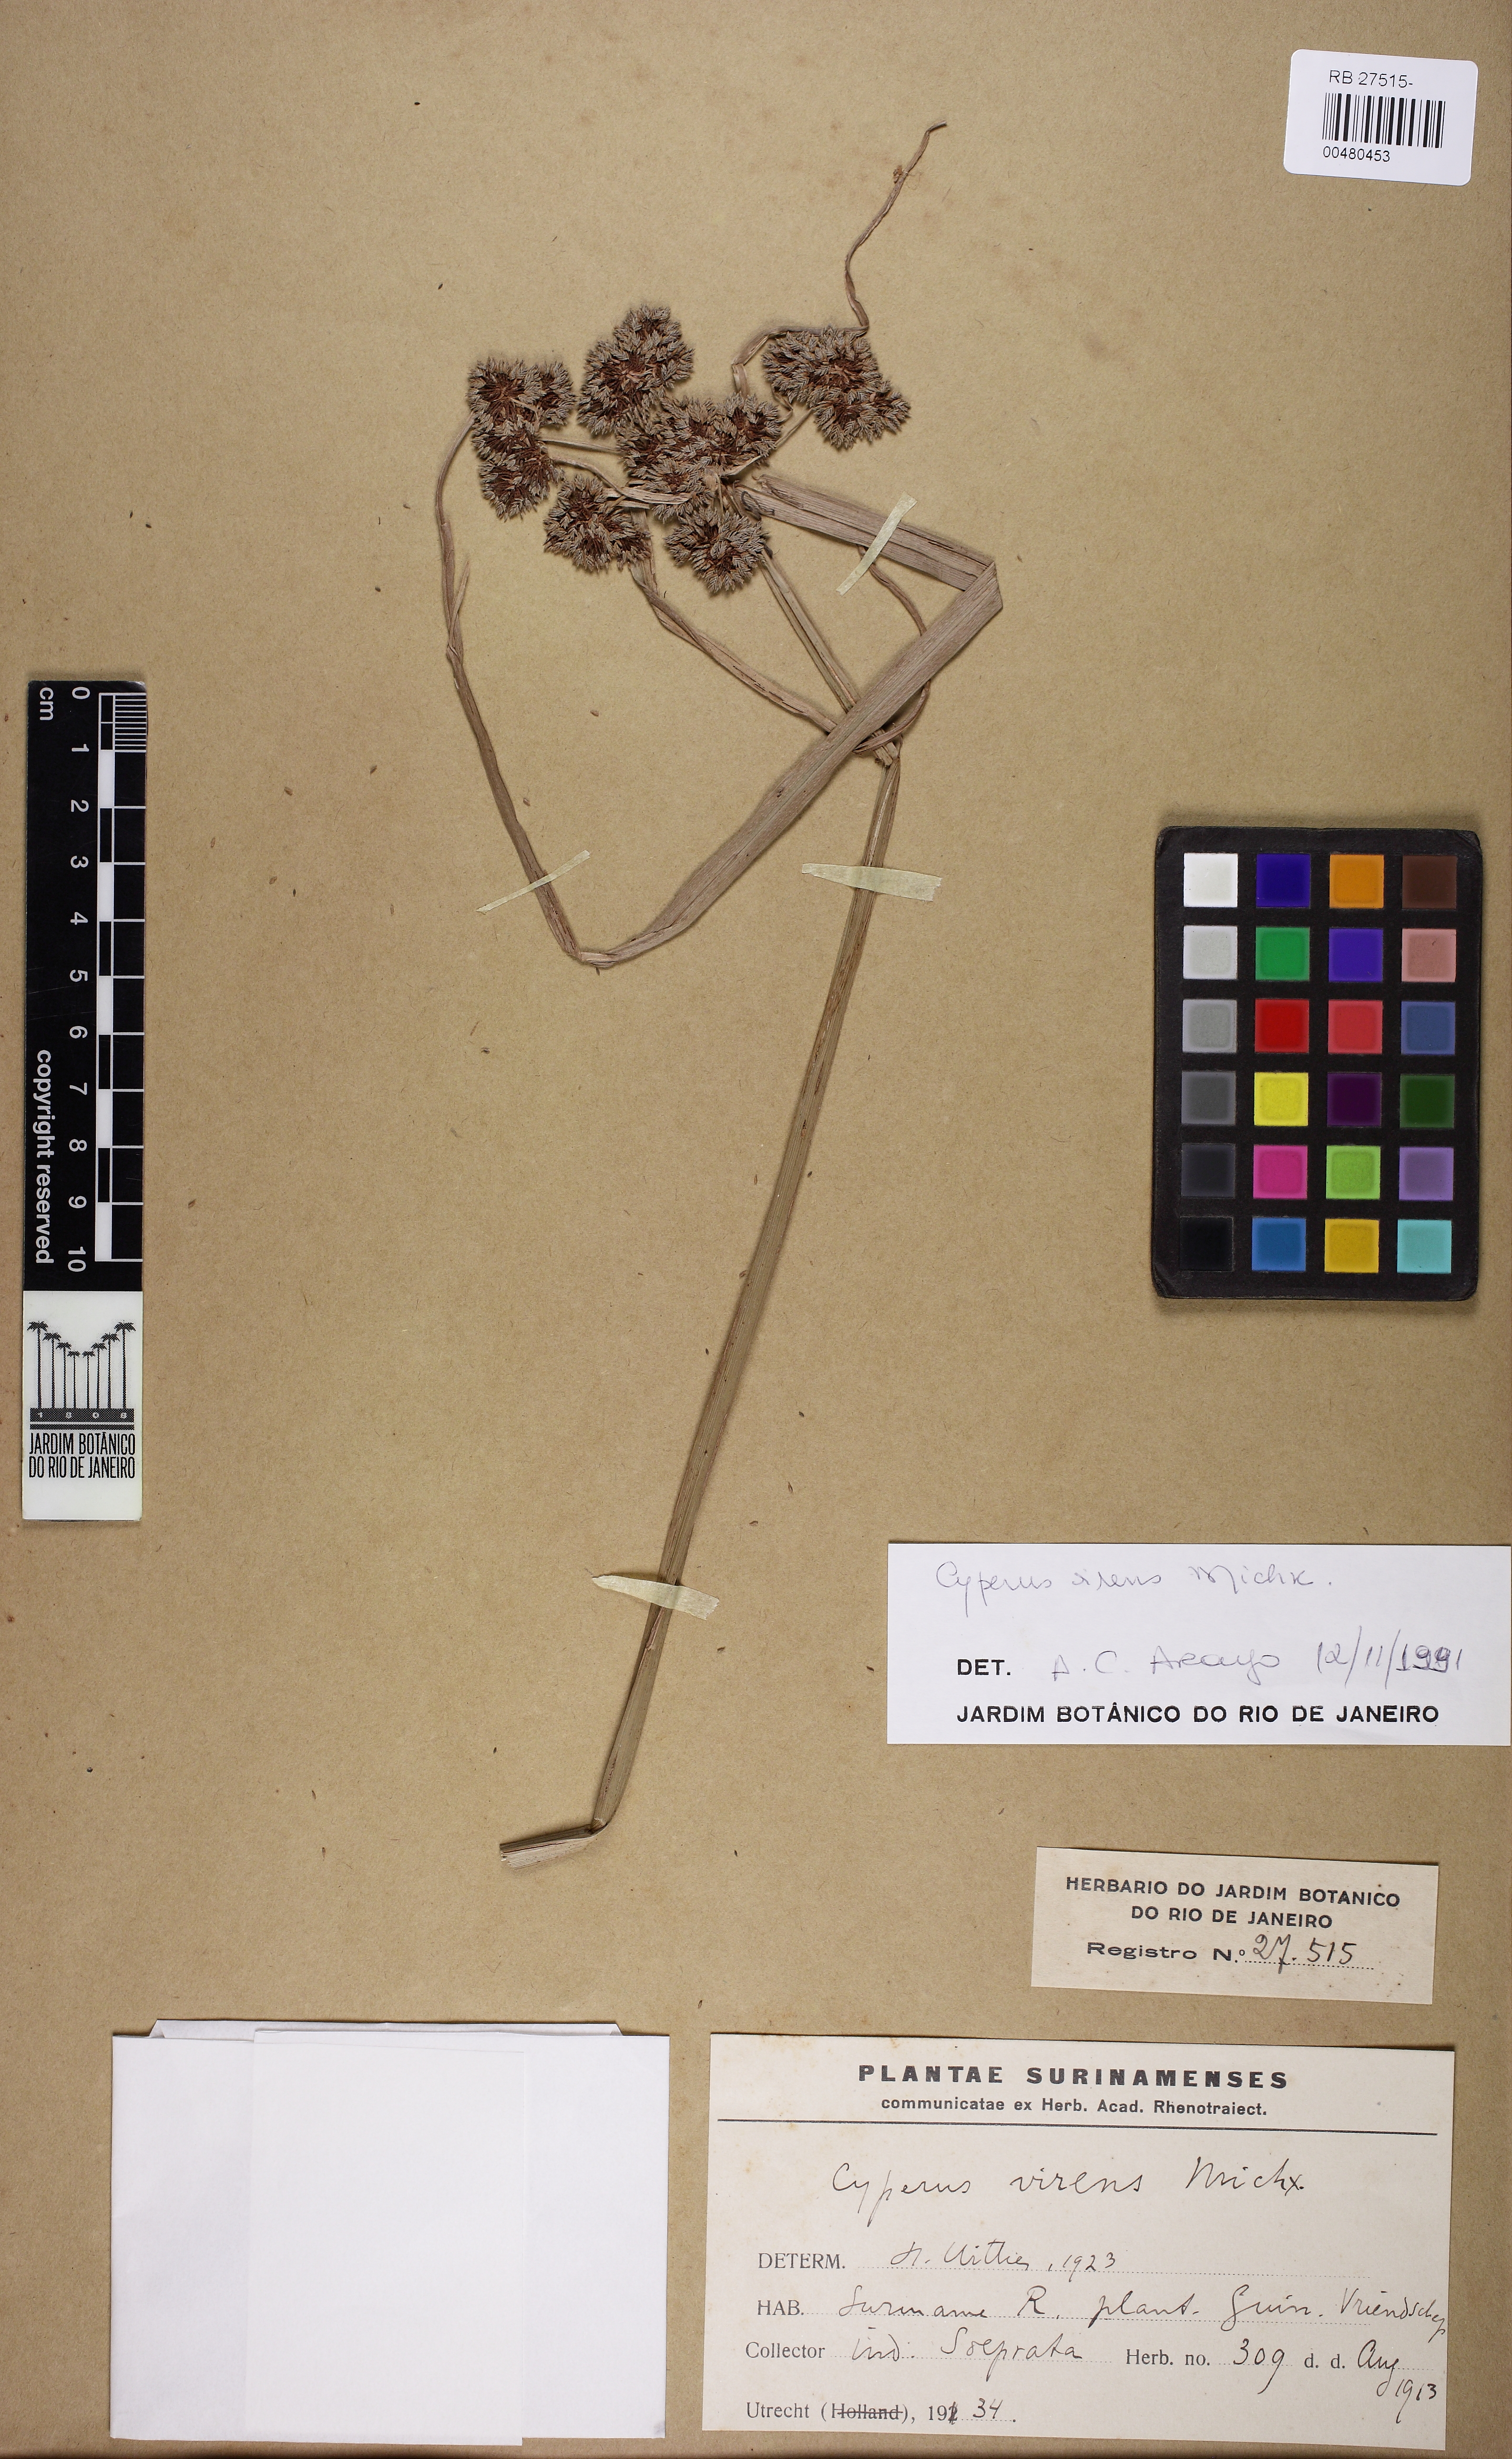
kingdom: Plantae
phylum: Tracheophyta
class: Liliopsida
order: Poales
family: Cyperaceae
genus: Cyperus
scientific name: Cyperus virens
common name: Green flatsedge
